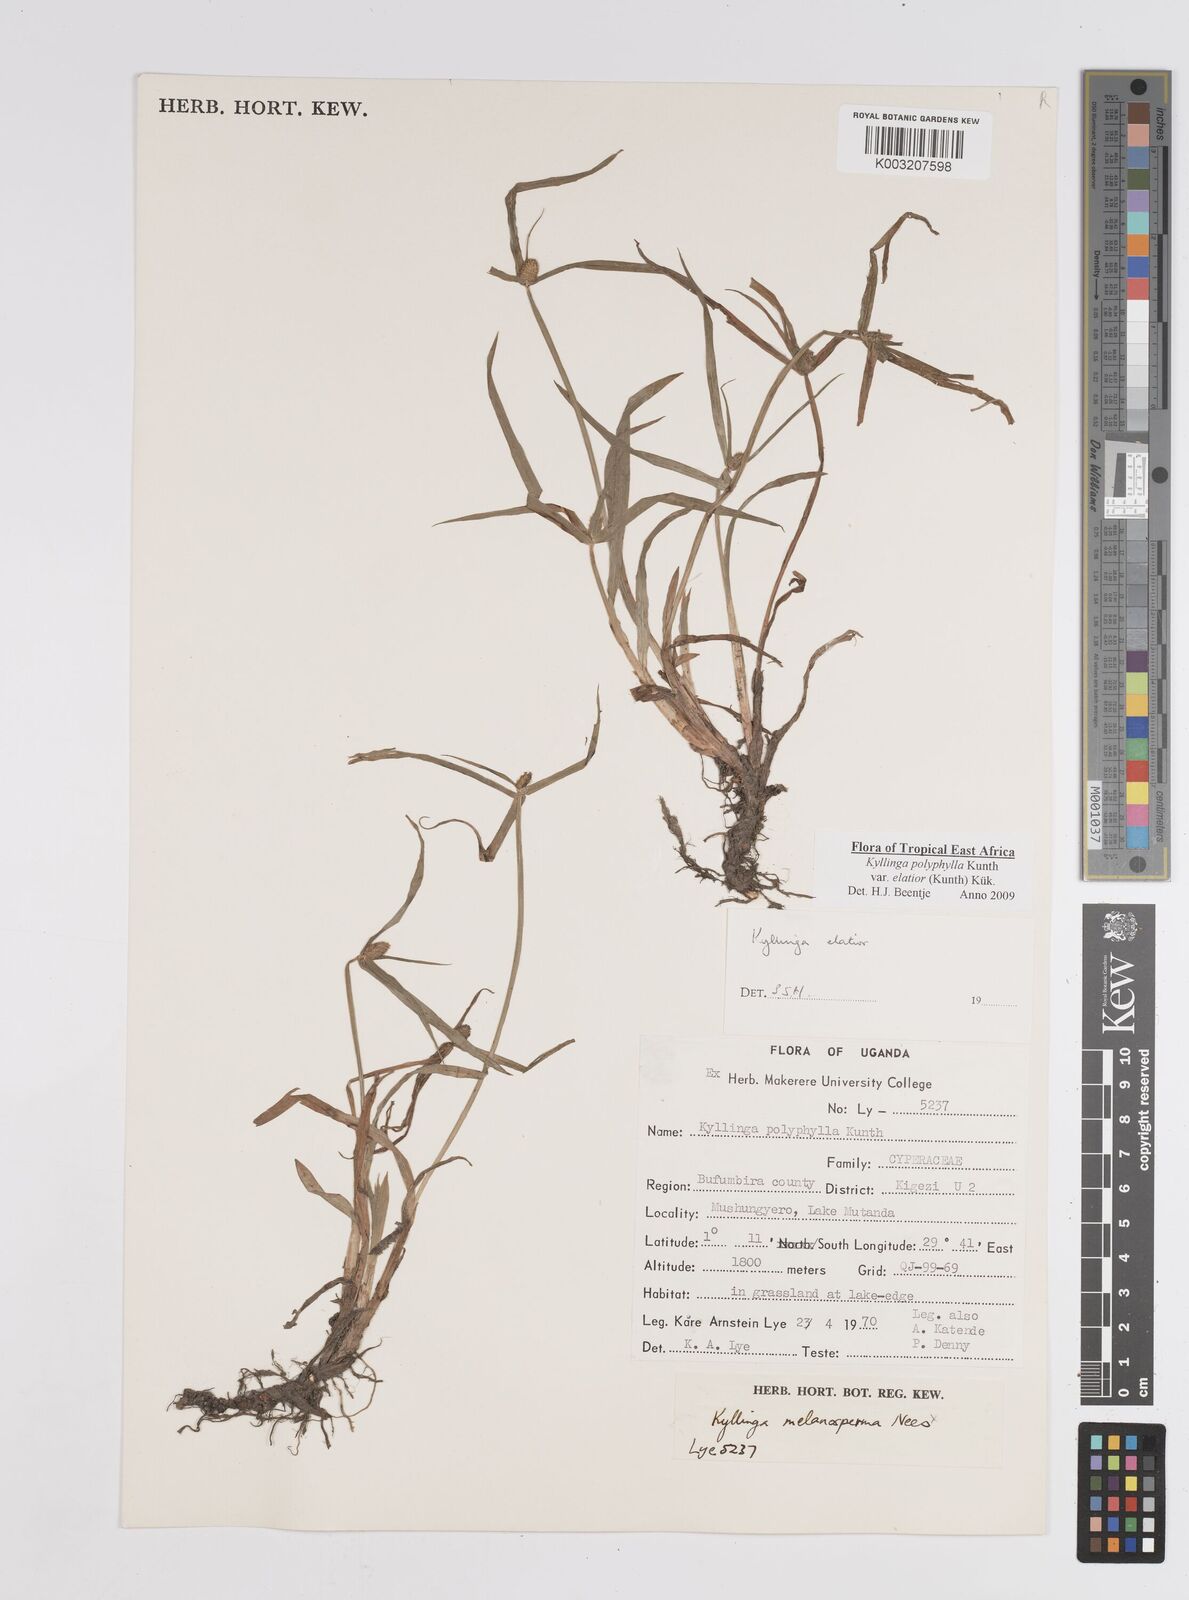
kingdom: Plantae
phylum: Tracheophyta
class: Liliopsida
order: Poales
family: Cyperaceae
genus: Cyperus
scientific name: Cyperus
